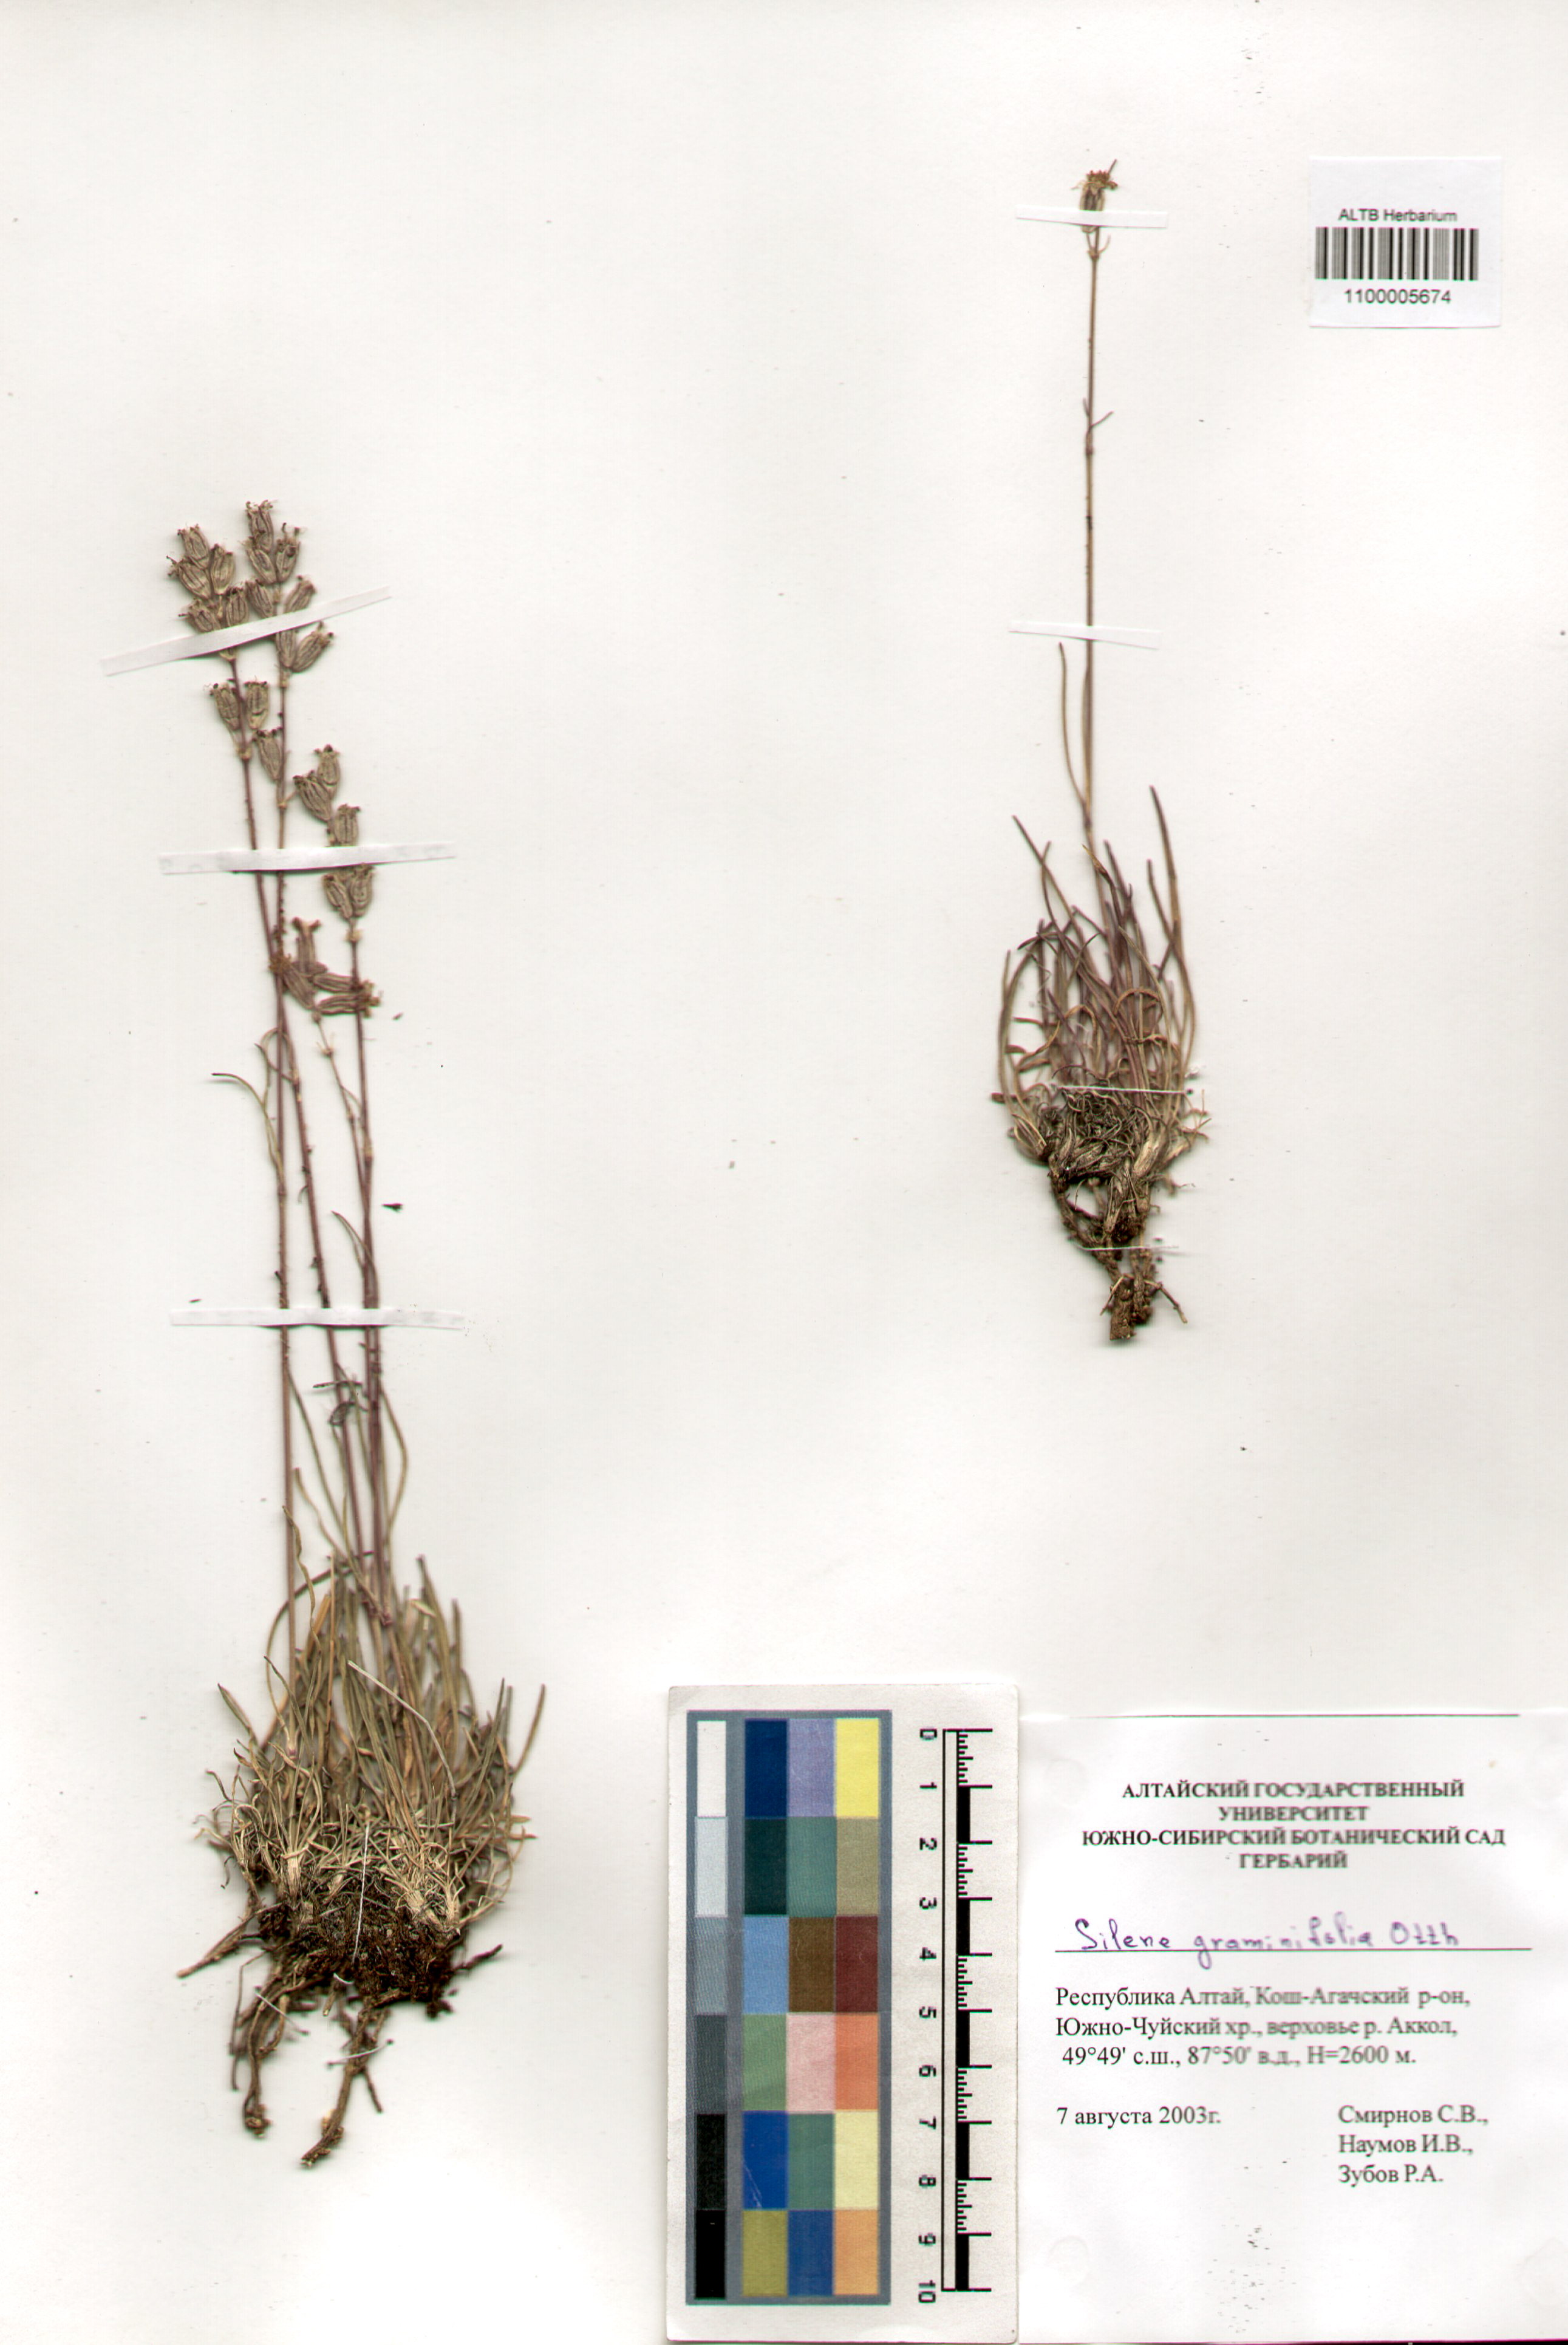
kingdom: Plantae
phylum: Tracheophyta
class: Magnoliopsida
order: Caryophyllales
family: Caryophyllaceae
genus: Silene
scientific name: Silene graminifolia
